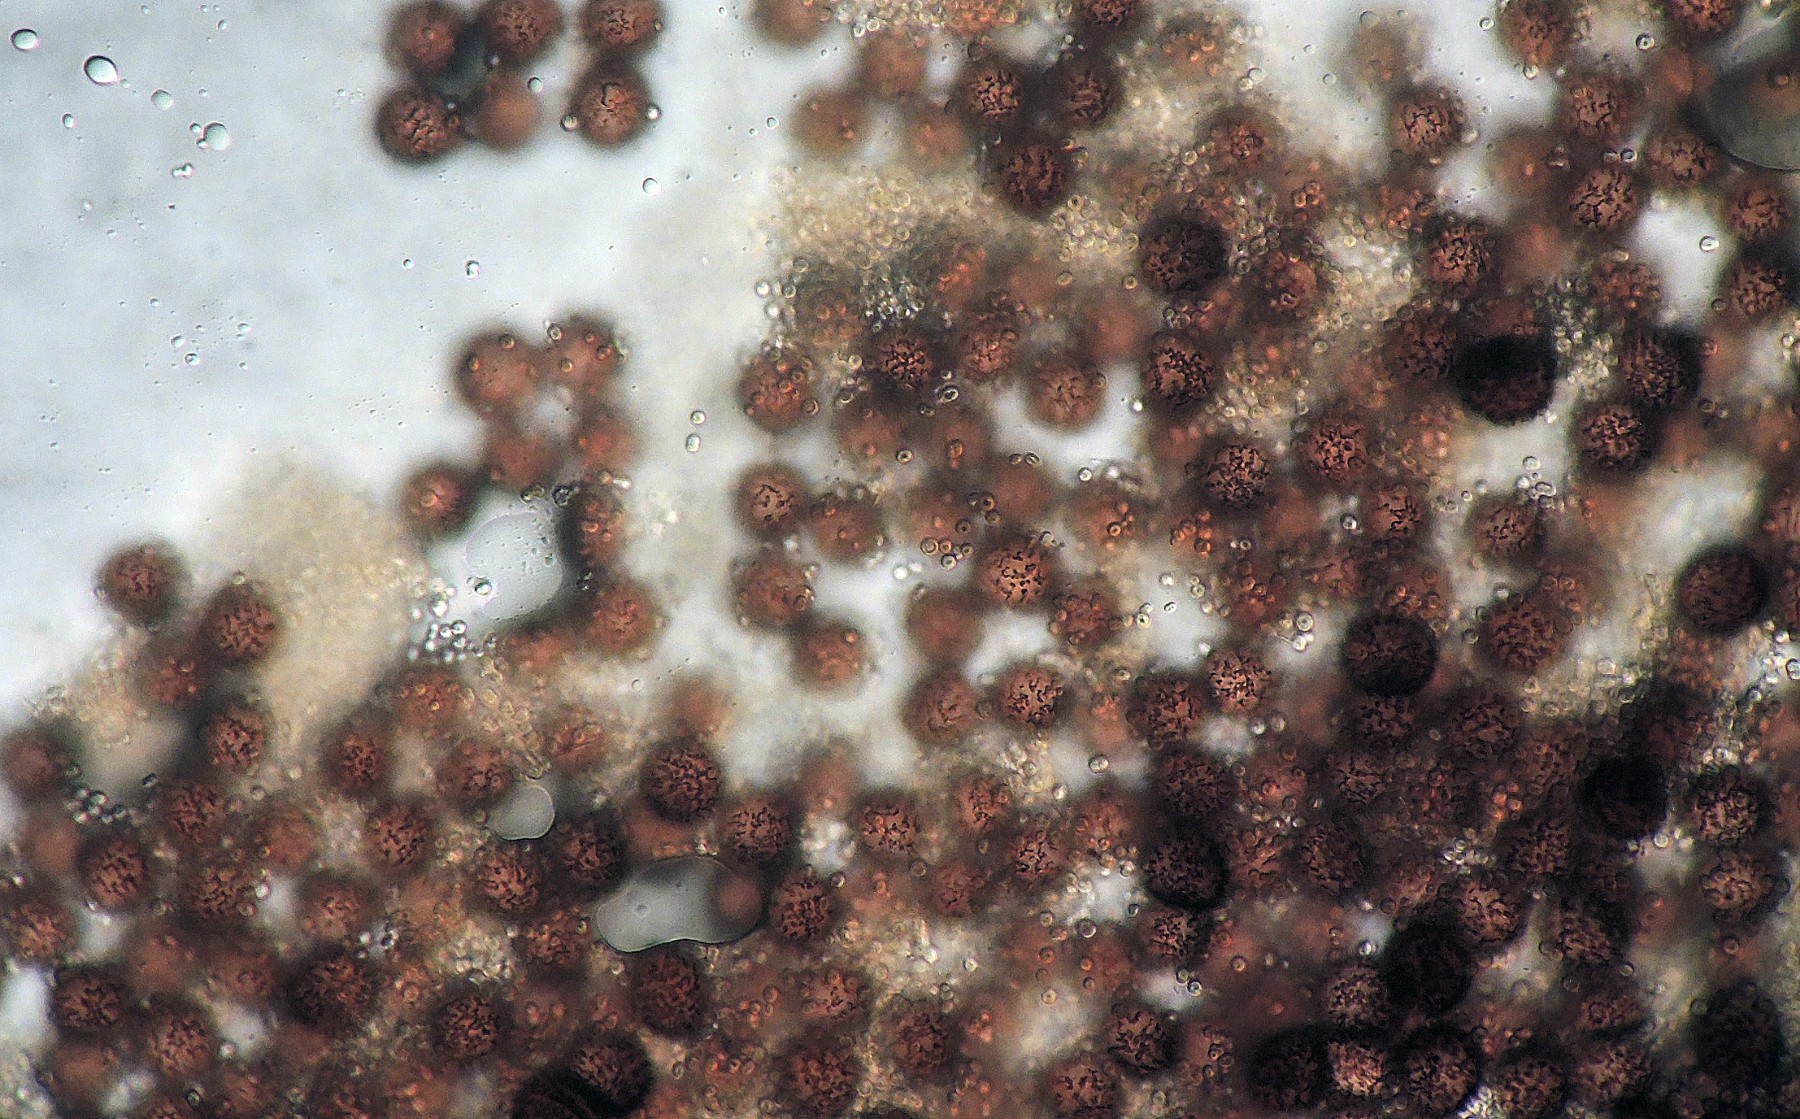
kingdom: Protozoa
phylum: Mycetozoa
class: Myxomycetes
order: Physarales
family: Physaraceae
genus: Badhamia
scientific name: Badhamia lilacina
